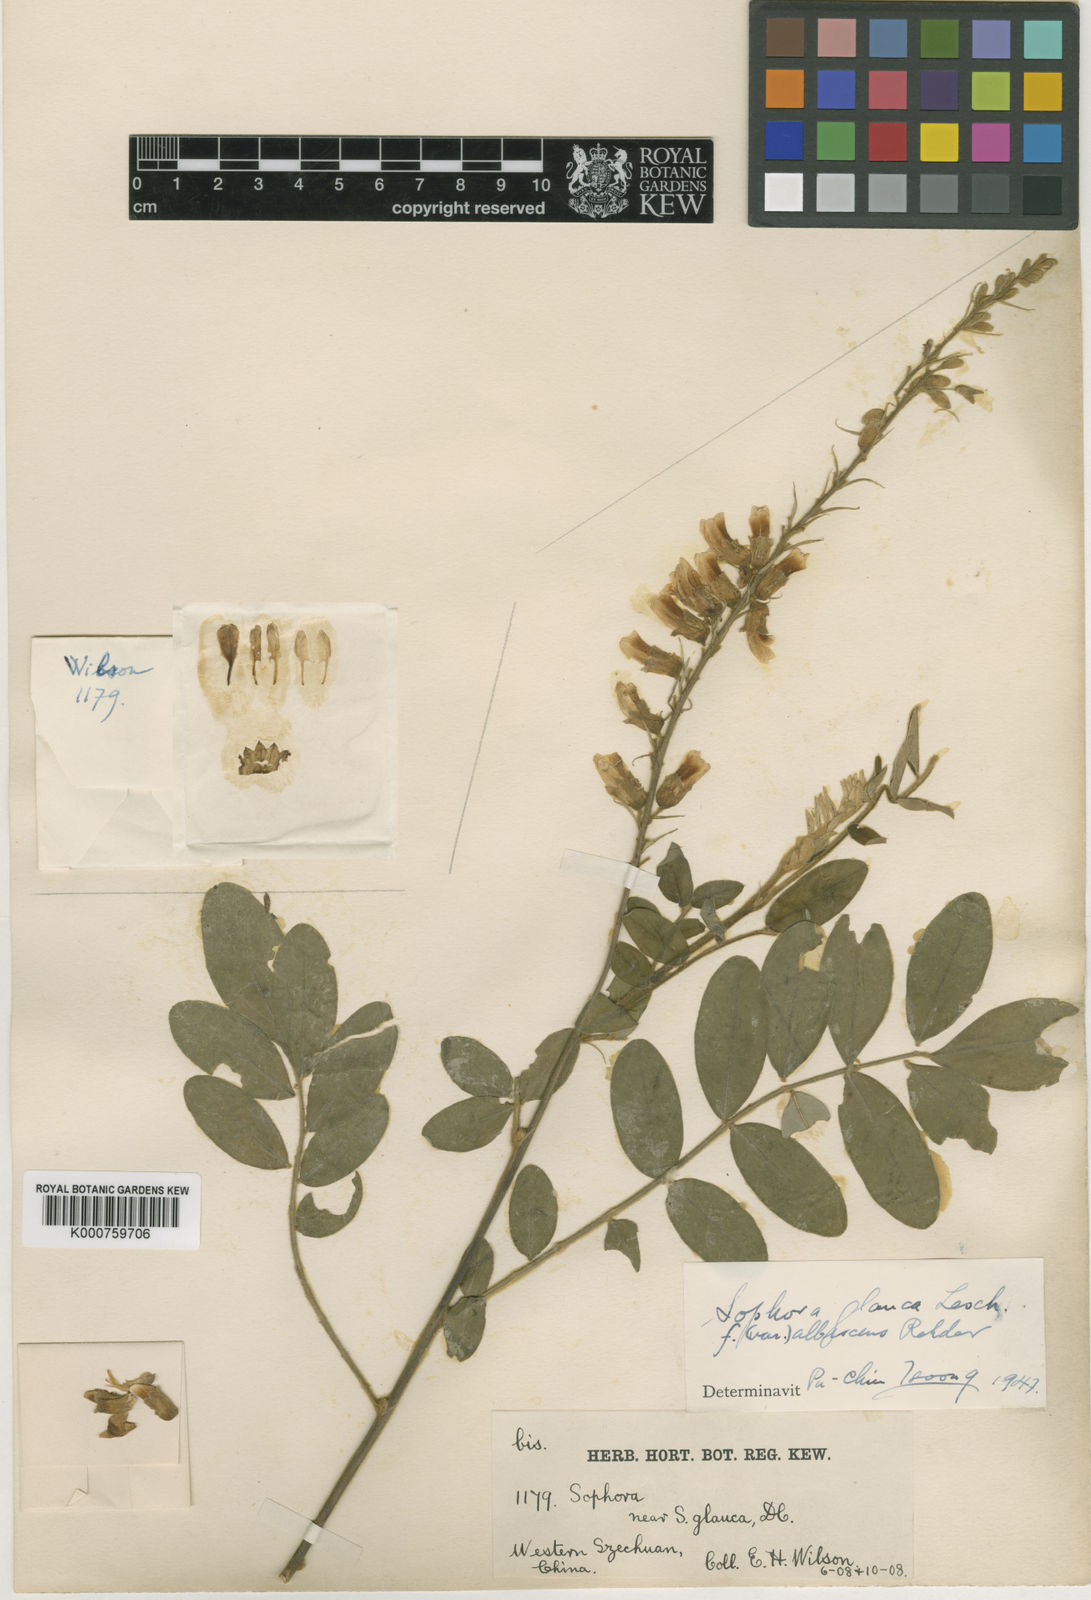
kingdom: Plantae
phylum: Tracheophyta
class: Magnoliopsida
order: Fabales
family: Fabaceae
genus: Sophora
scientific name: Sophora velutina
